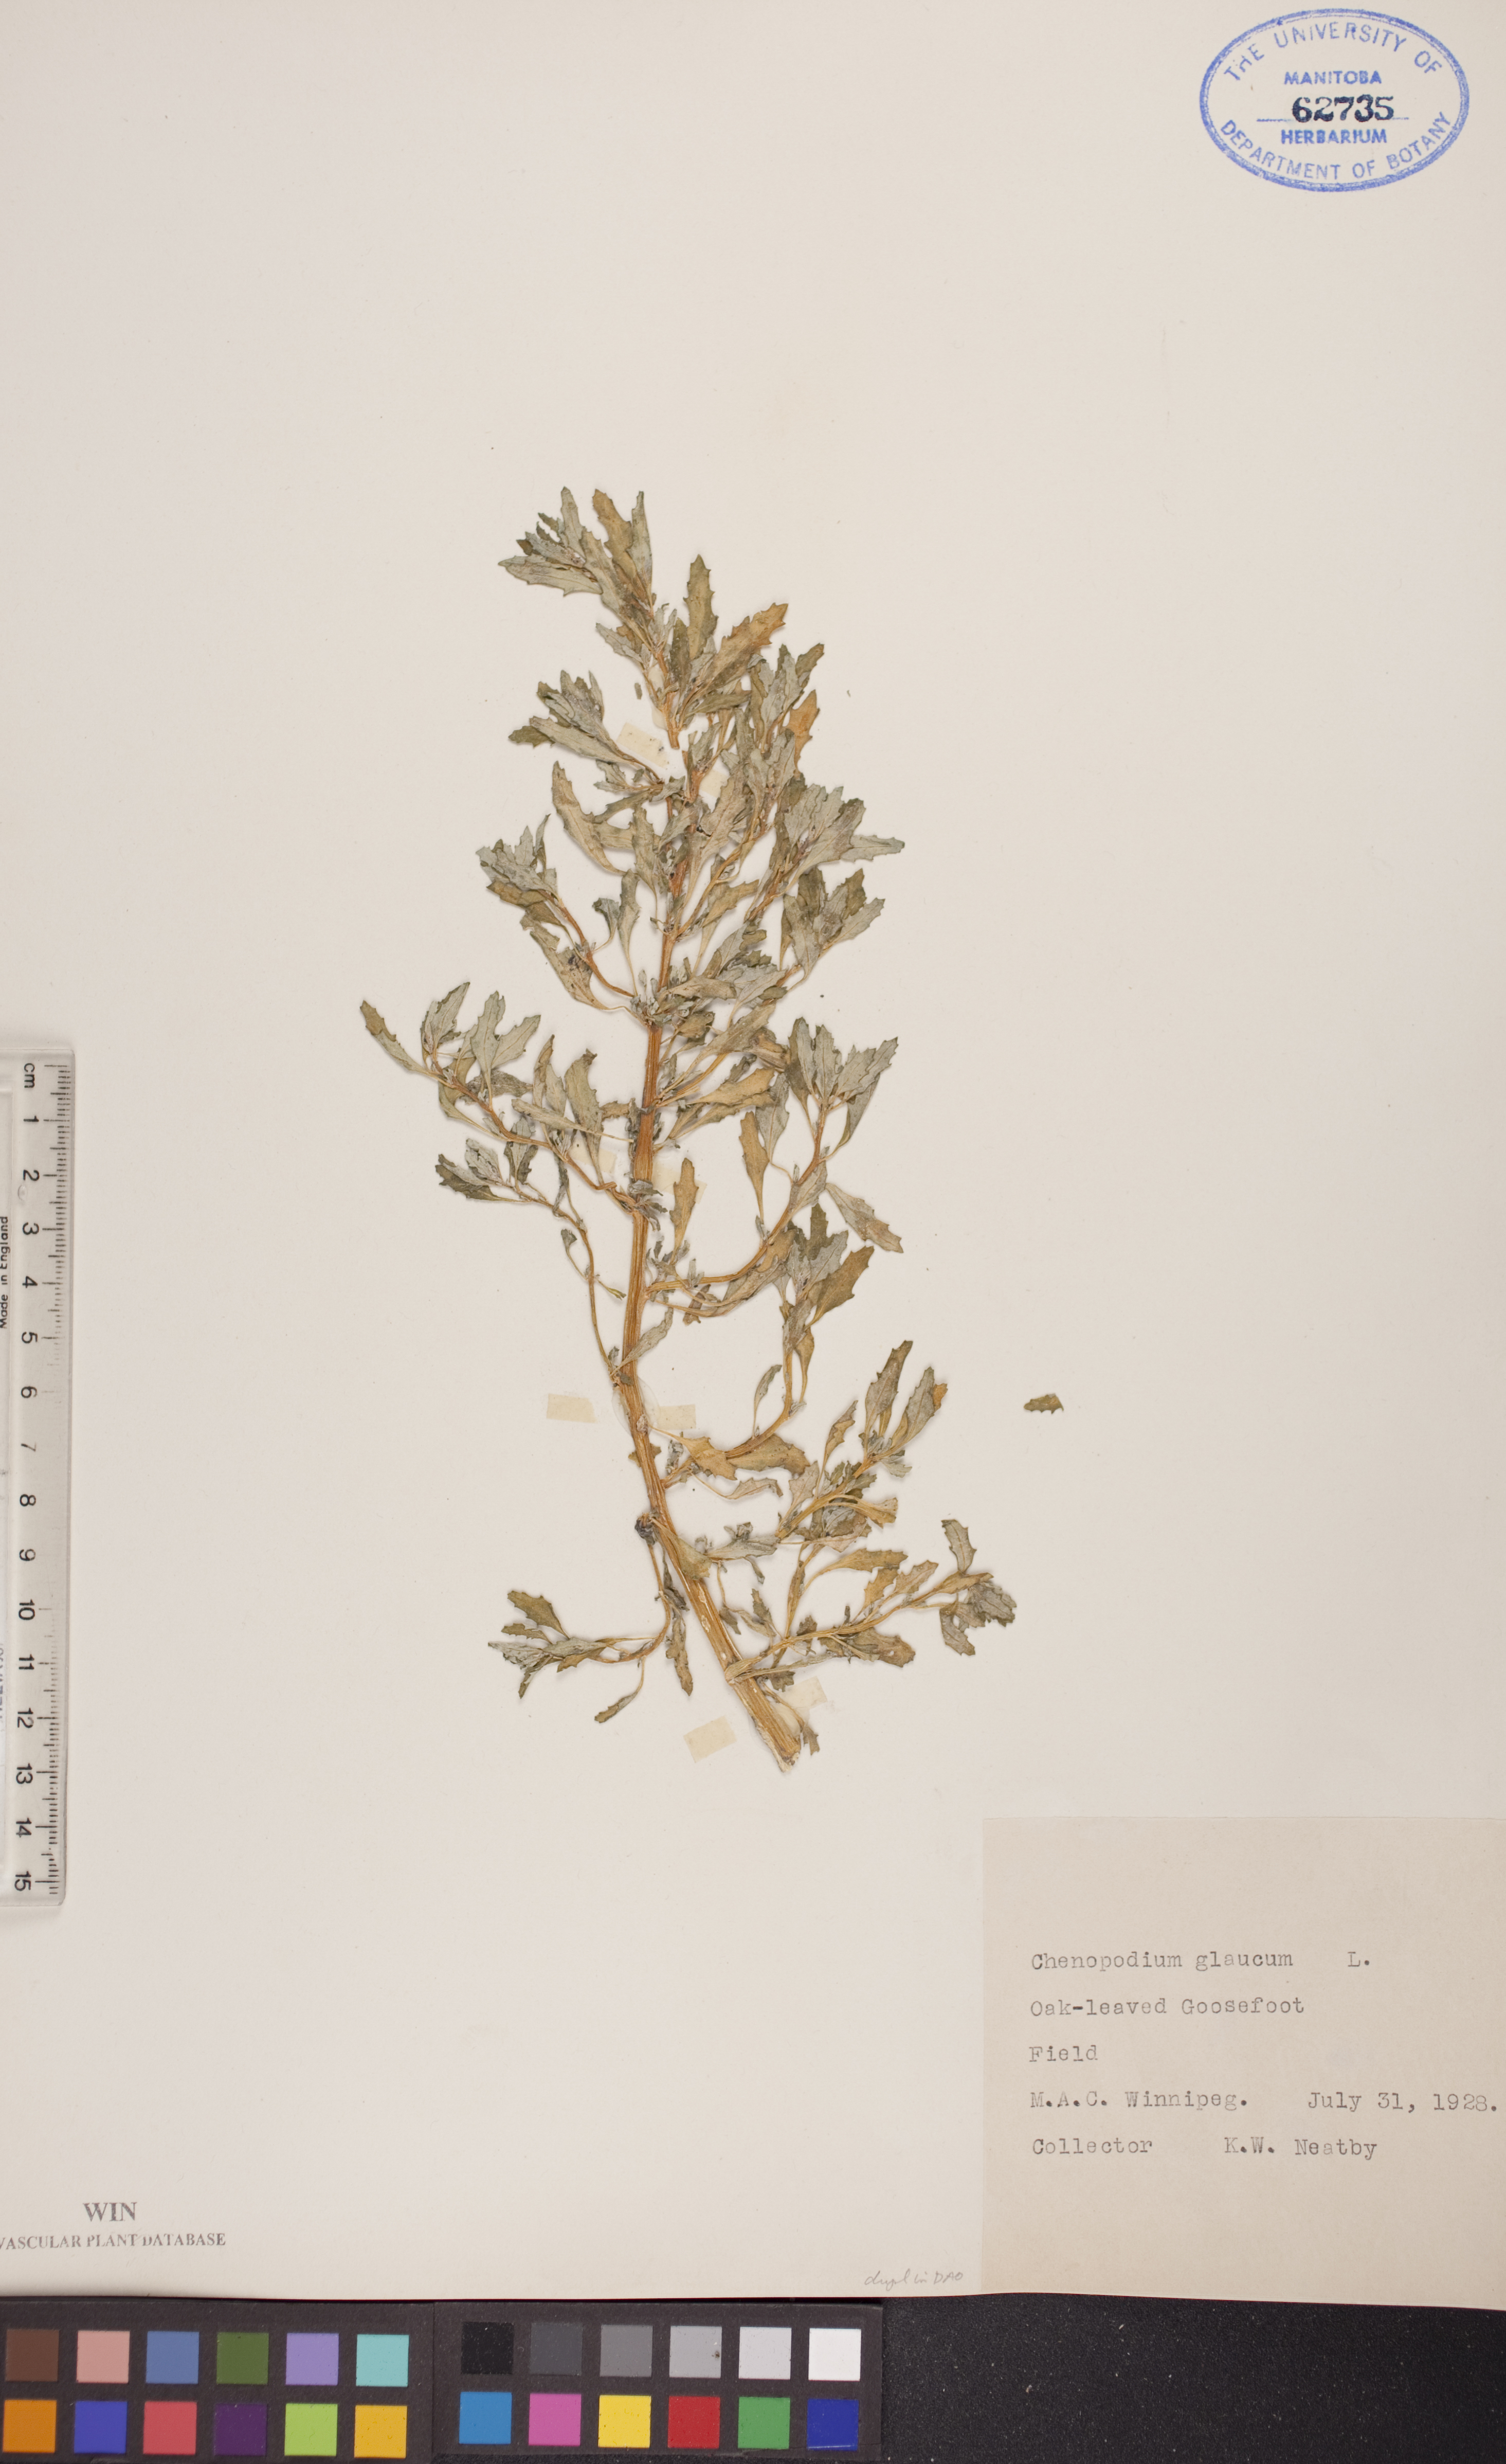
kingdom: Plantae
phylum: Tracheophyta
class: Magnoliopsida
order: Caryophyllales
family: Amaranthaceae
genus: Oxybasis
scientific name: Oxybasis glauca
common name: Glaucous goosefoot
